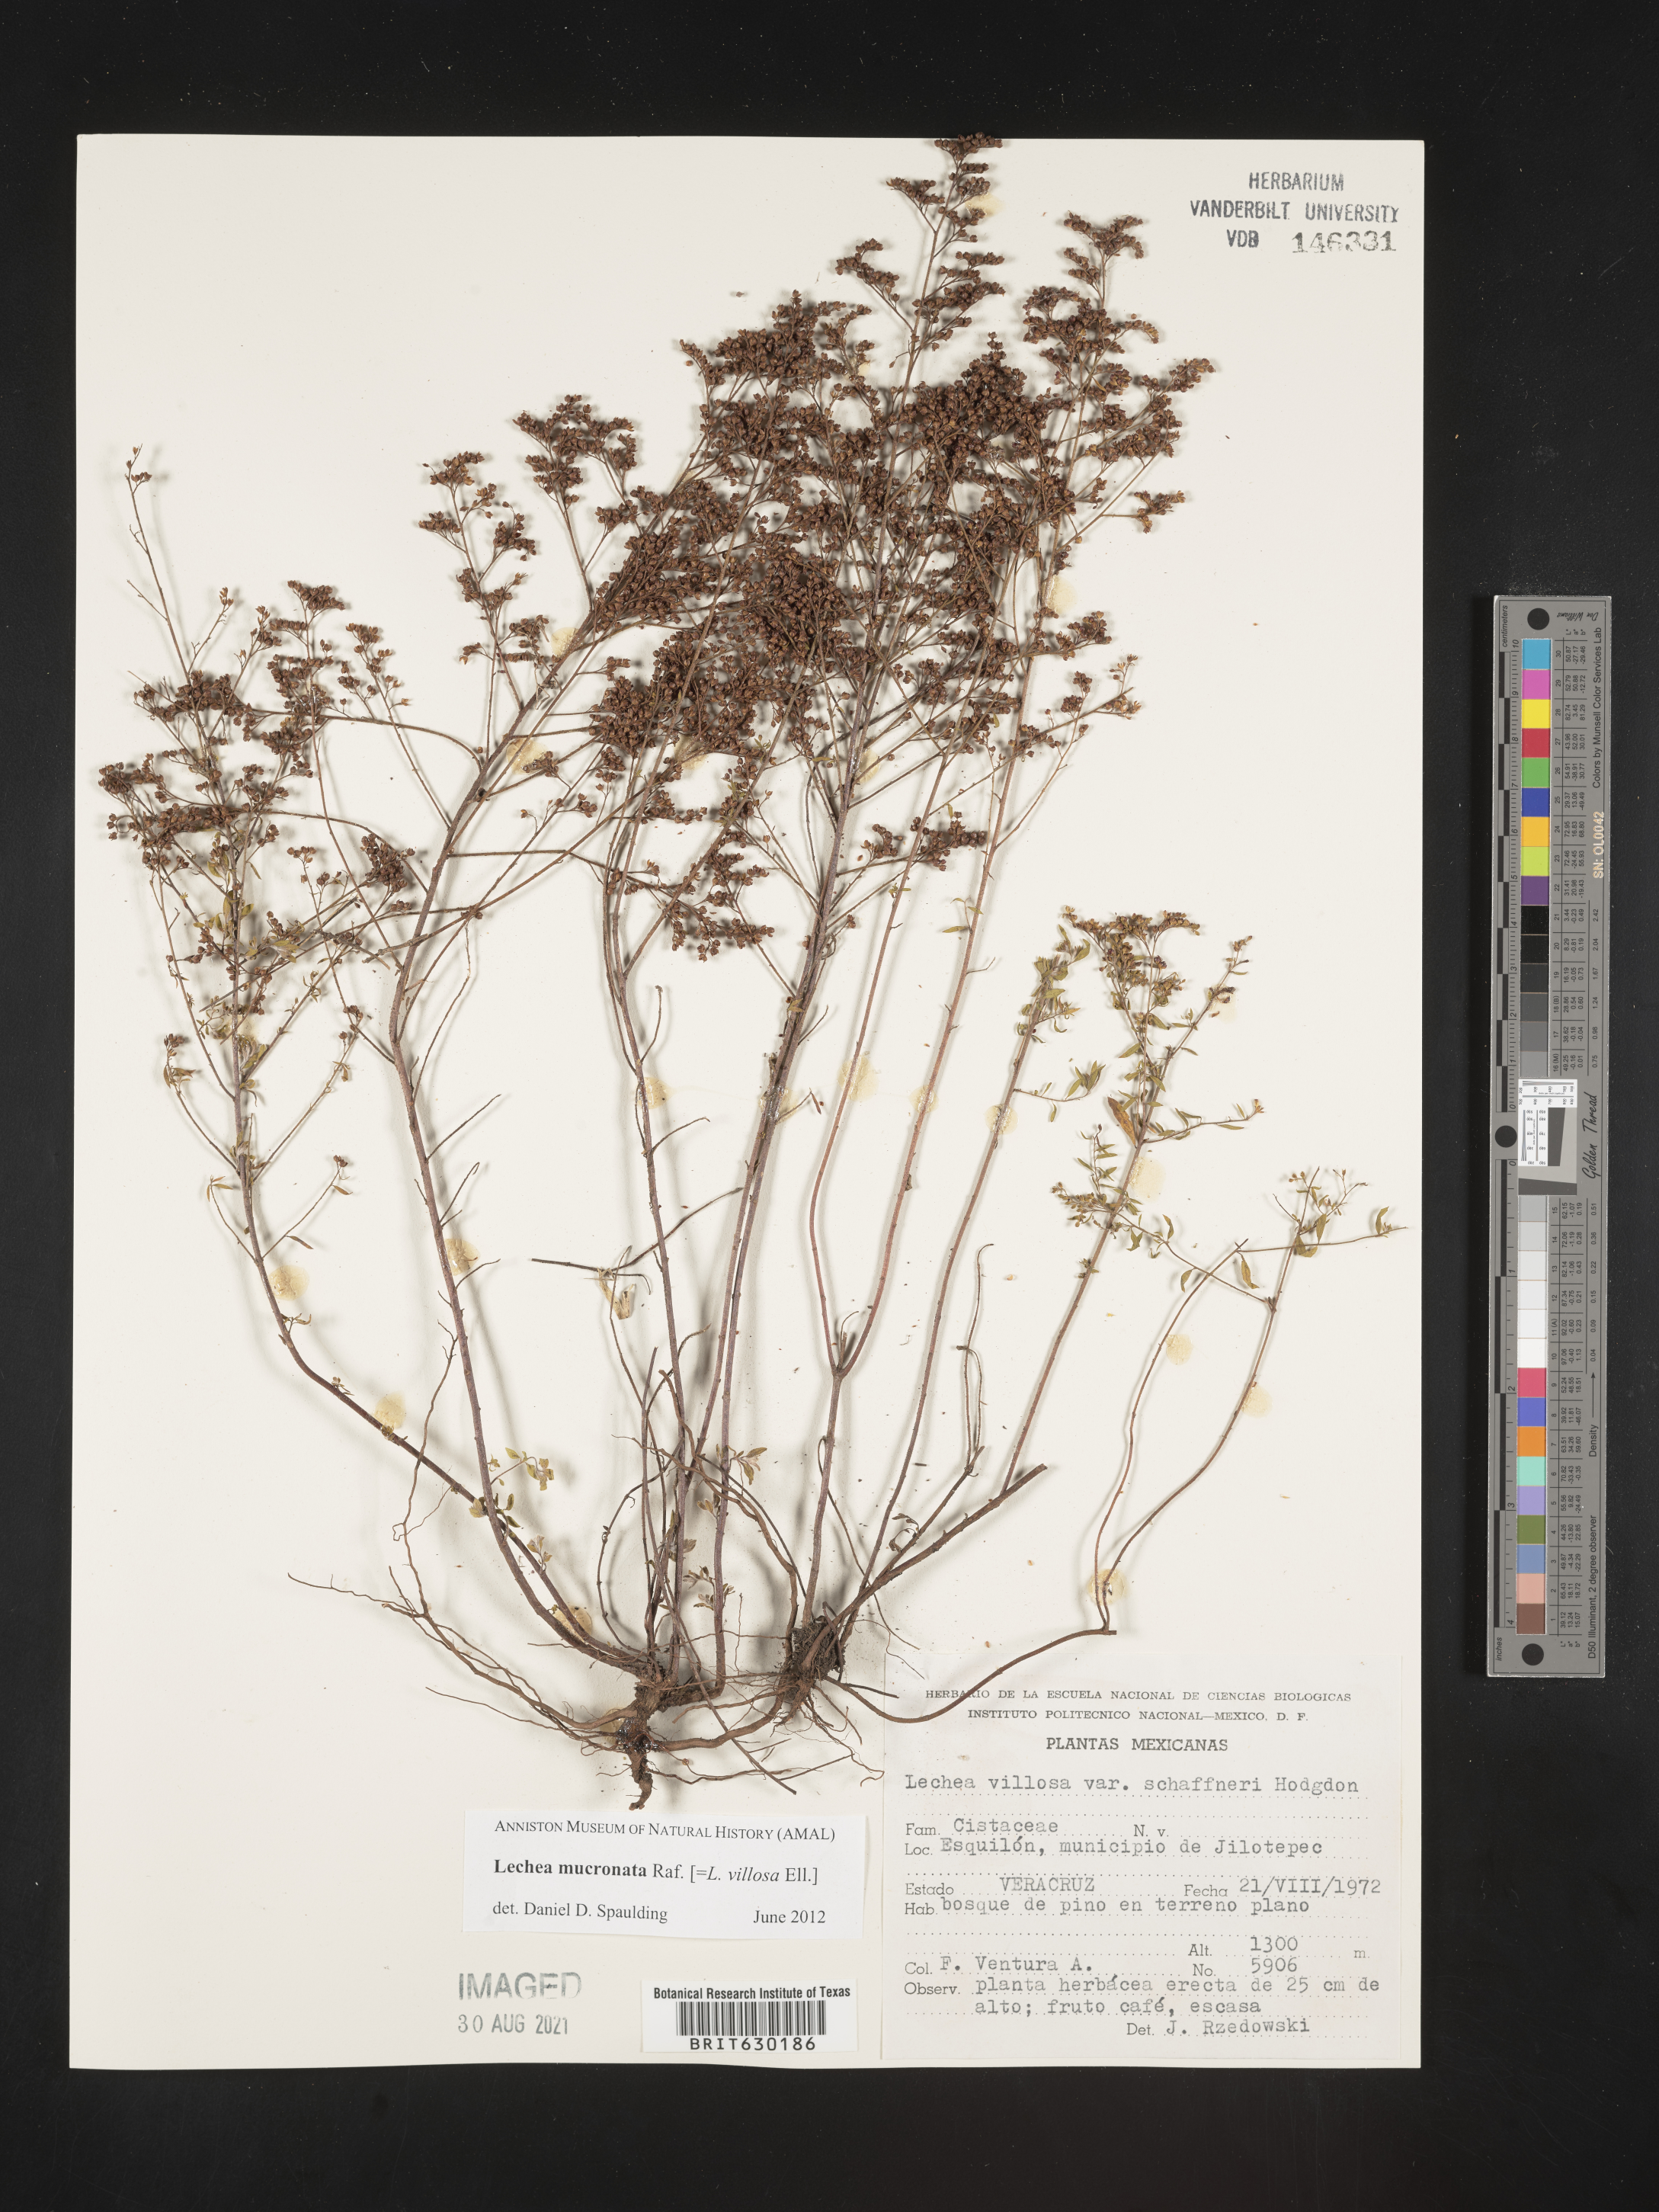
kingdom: Plantae
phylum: Tracheophyta
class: Magnoliopsida
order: Malvales
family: Cistaceae
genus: Lechea
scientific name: Lechea
